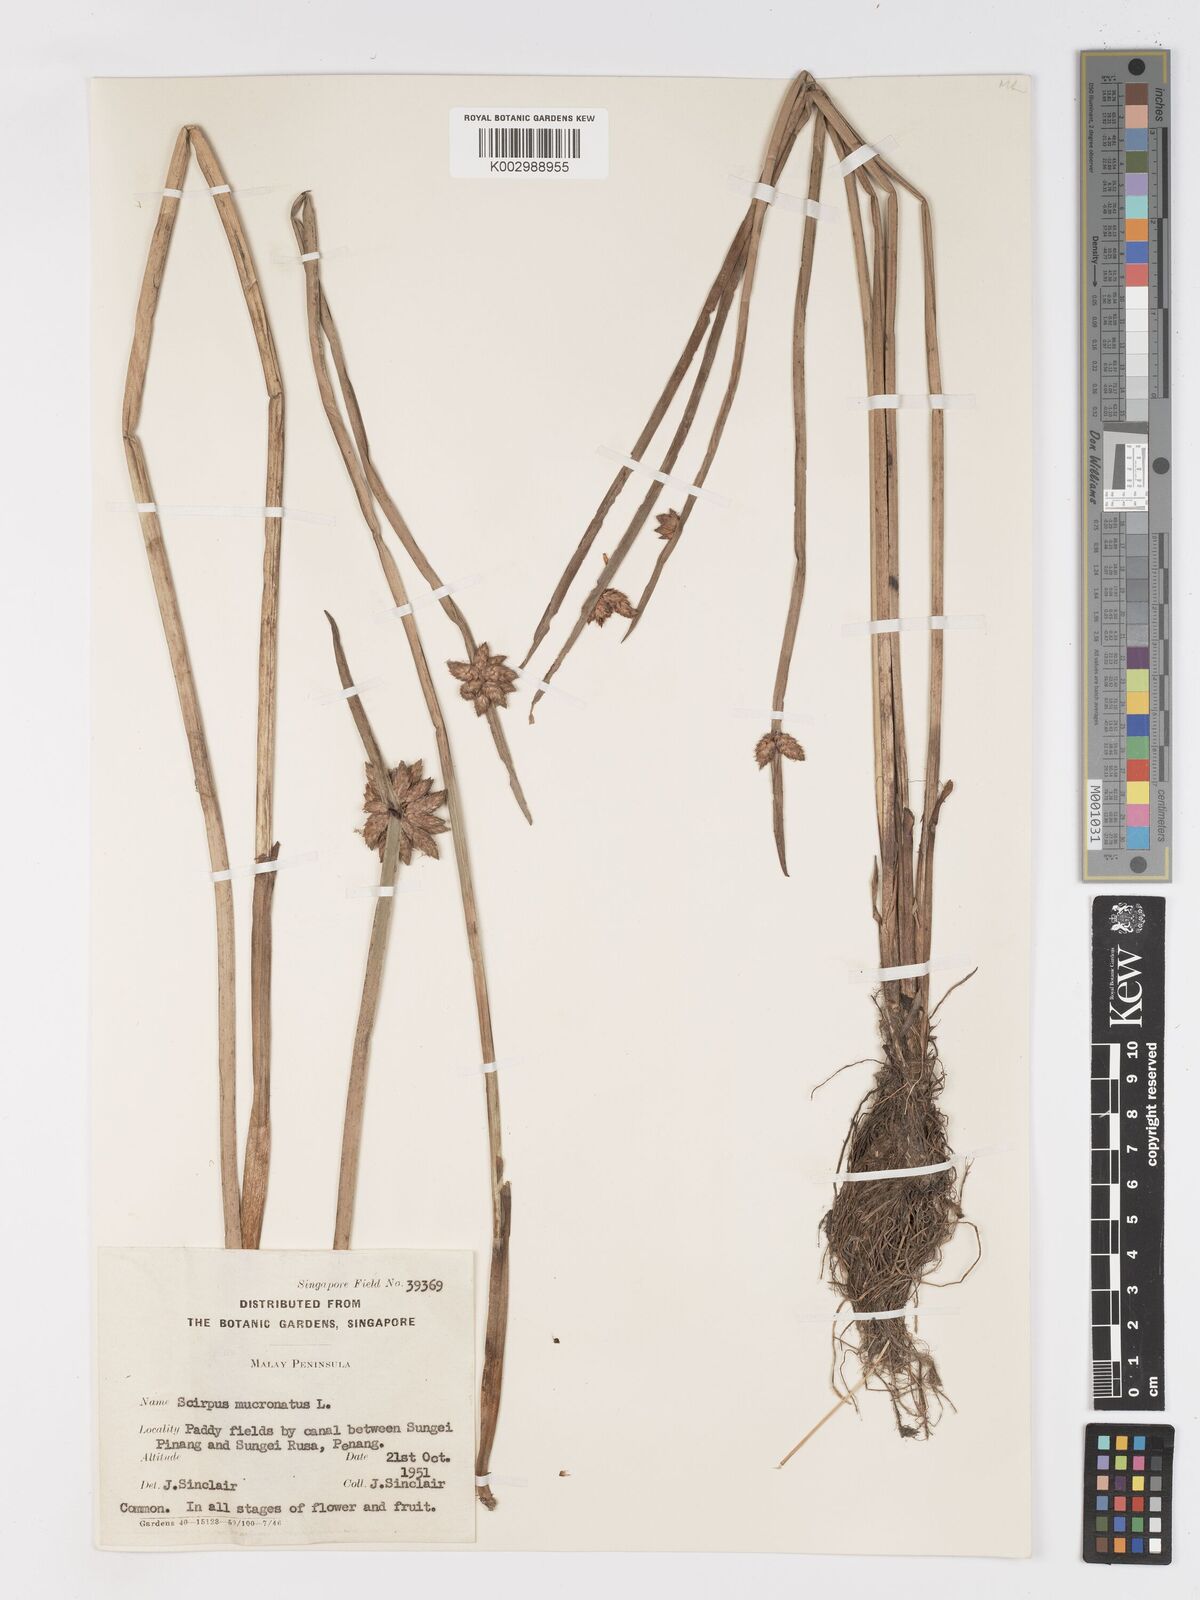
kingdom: Plantae
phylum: Tracheophyta
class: Liliopsida
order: Poales
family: Cyperaceae
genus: Schoenoplectiella
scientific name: Schoenoplectiella mucronata
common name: Bog bulrush
